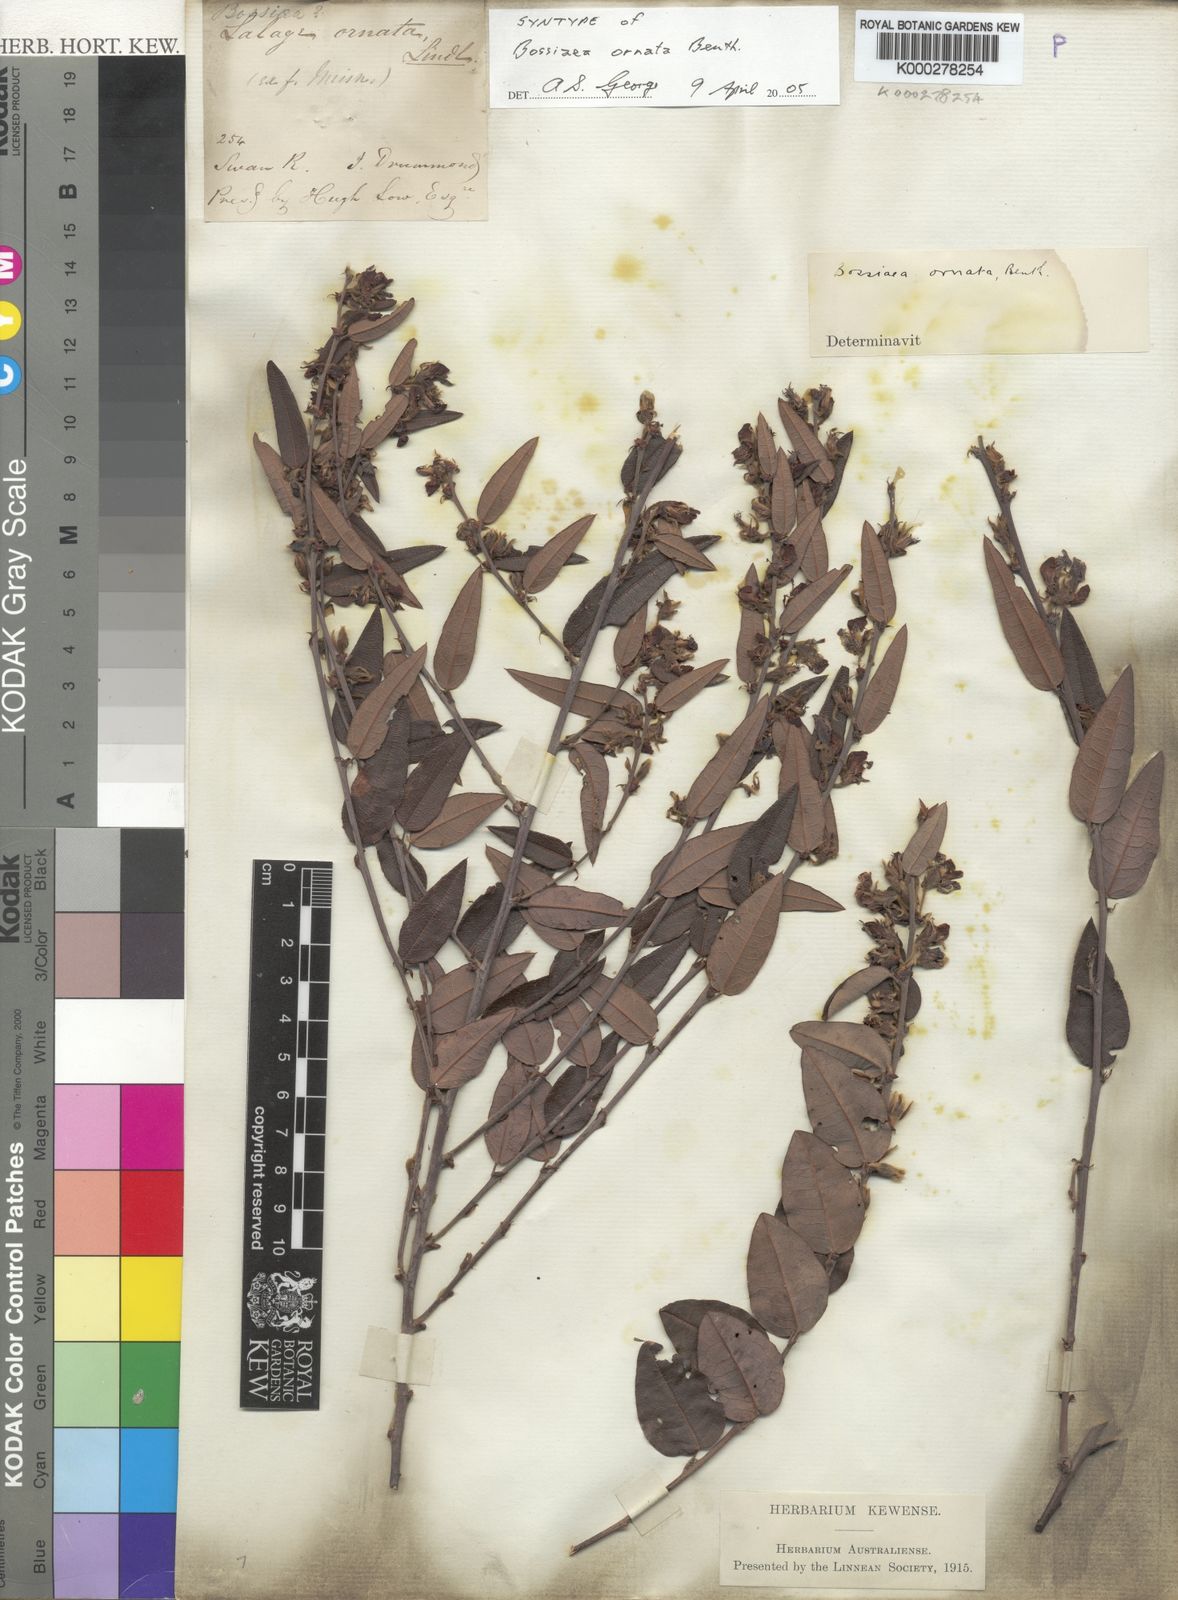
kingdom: Plantae
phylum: Tracheophyta
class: Magnoliopsida
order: Fabales
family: Fabaceae
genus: Bossiaea
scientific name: Bossiaea ornata
